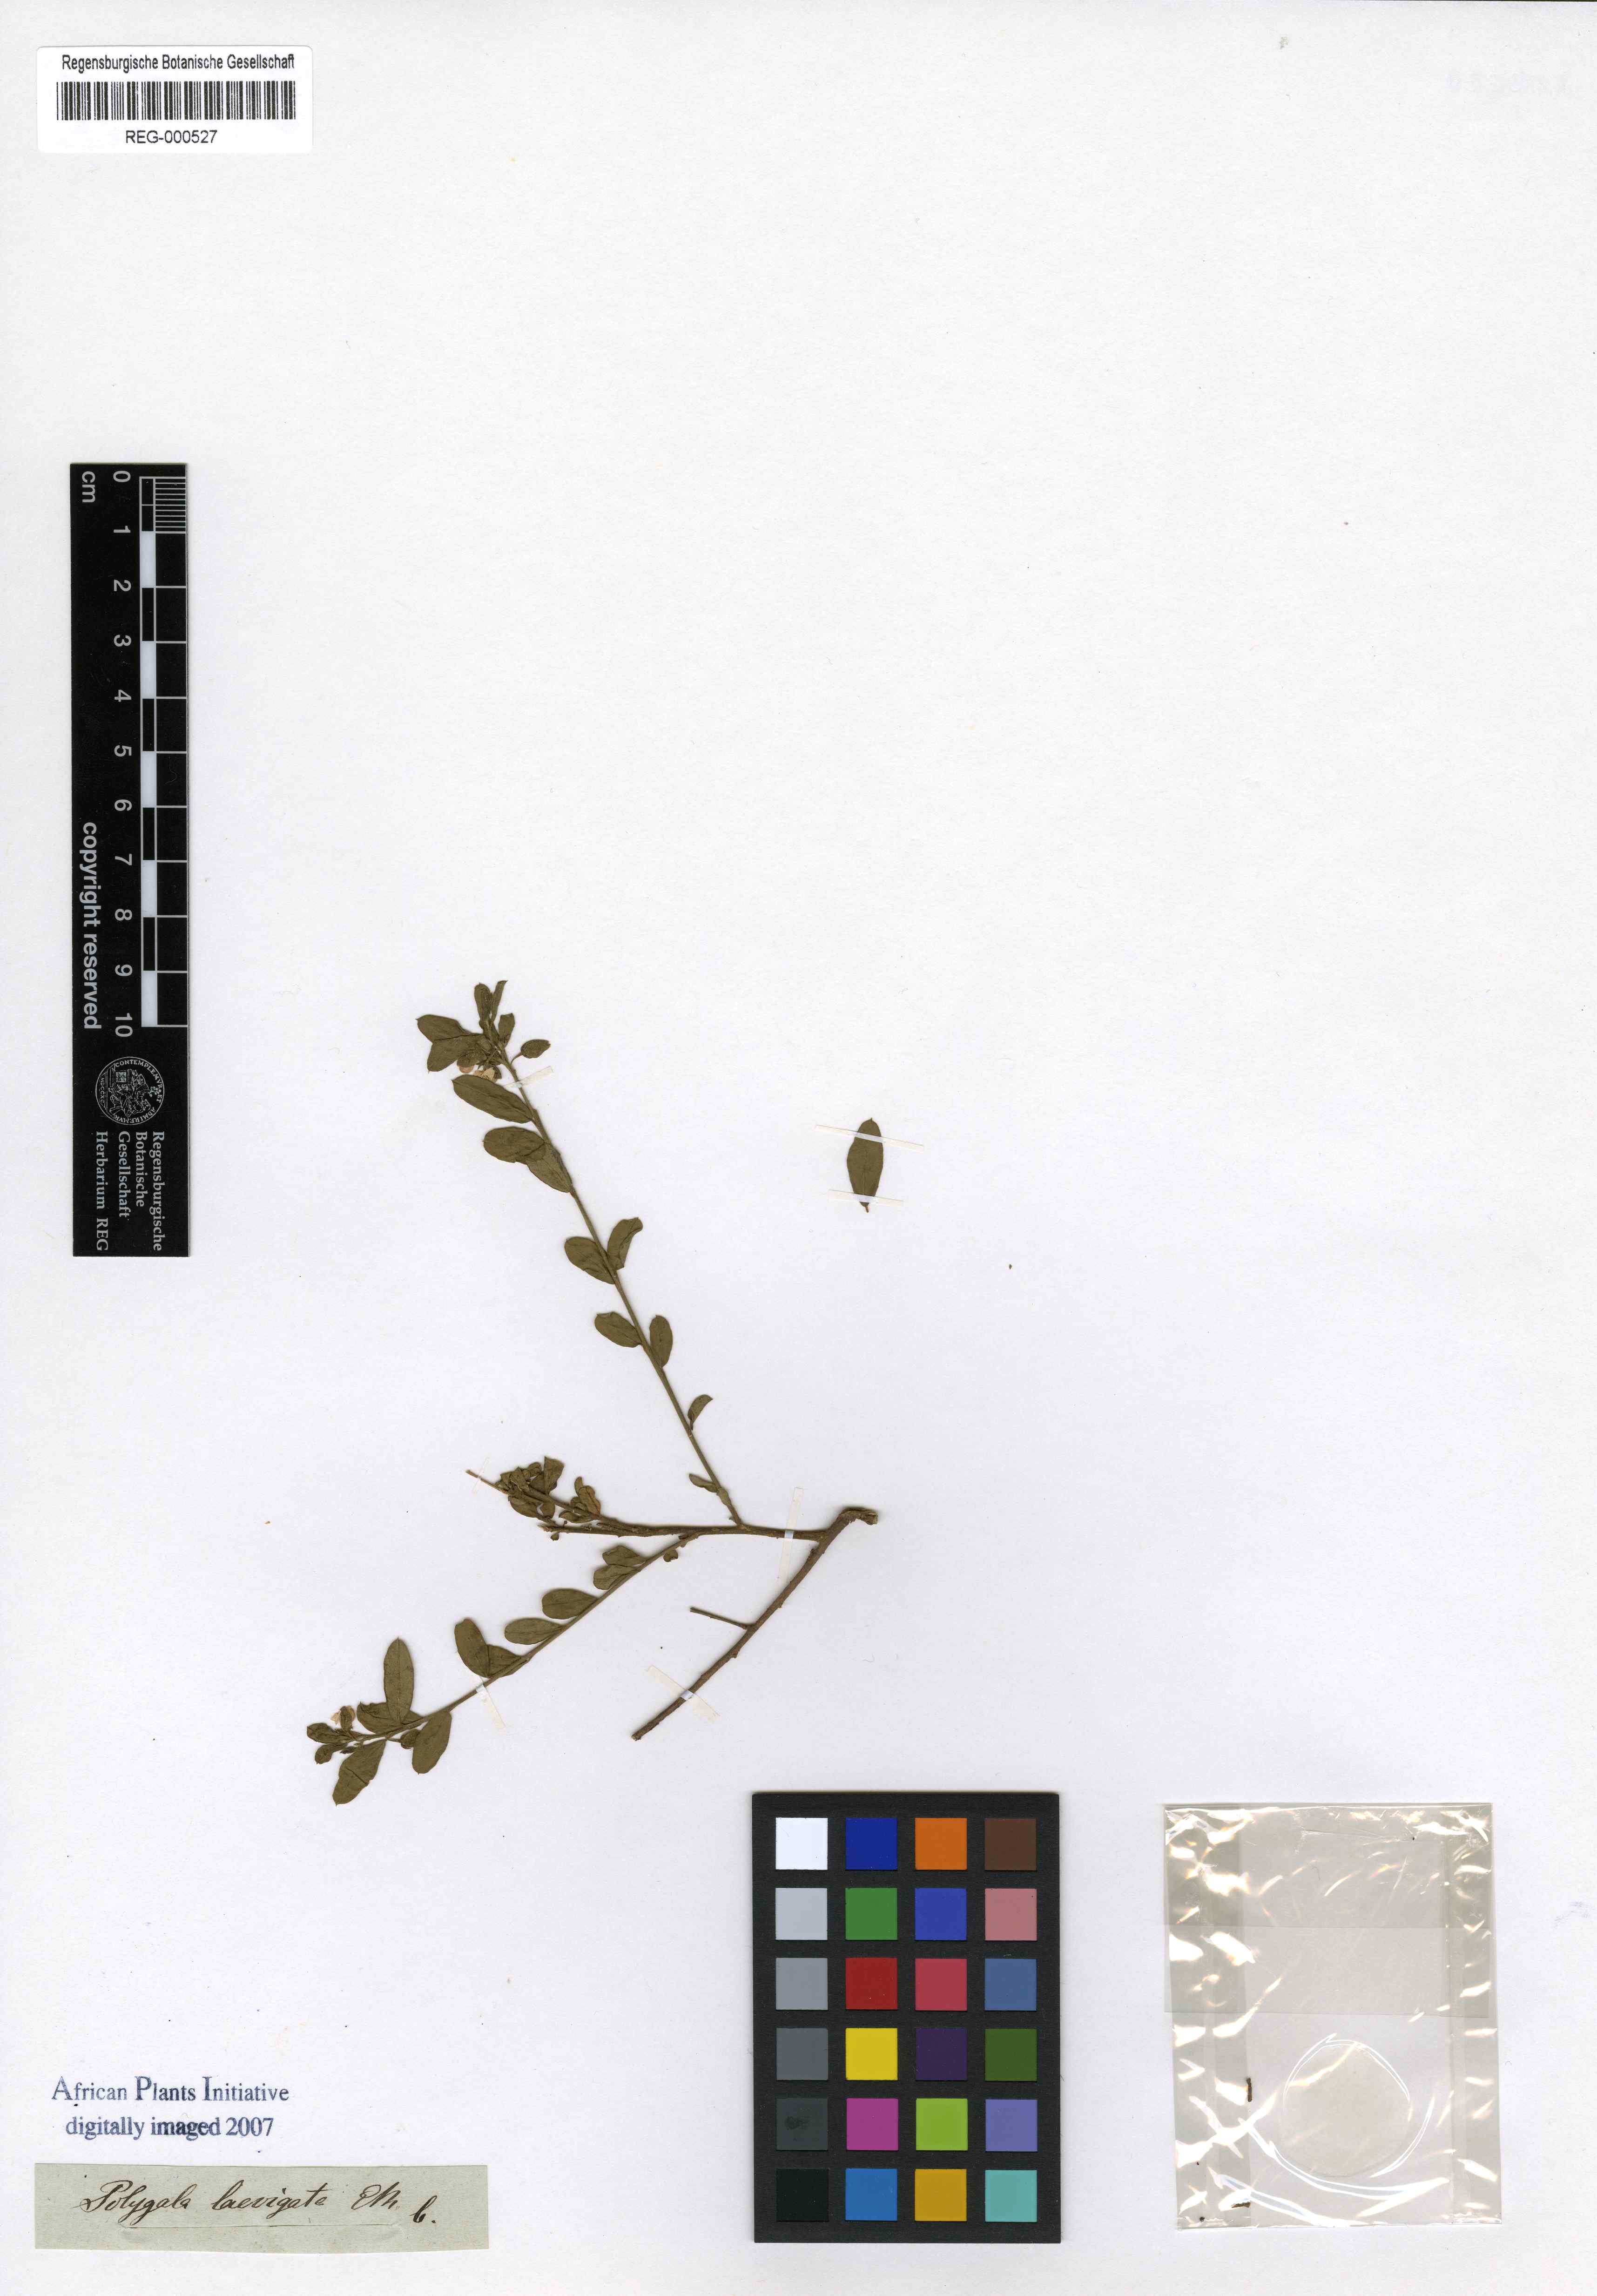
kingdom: Plantae
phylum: Tracheophyta
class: Magnoliopsida
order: Fabales
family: Polygalaceae
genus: Polygala
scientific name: Polygala serpentaria
